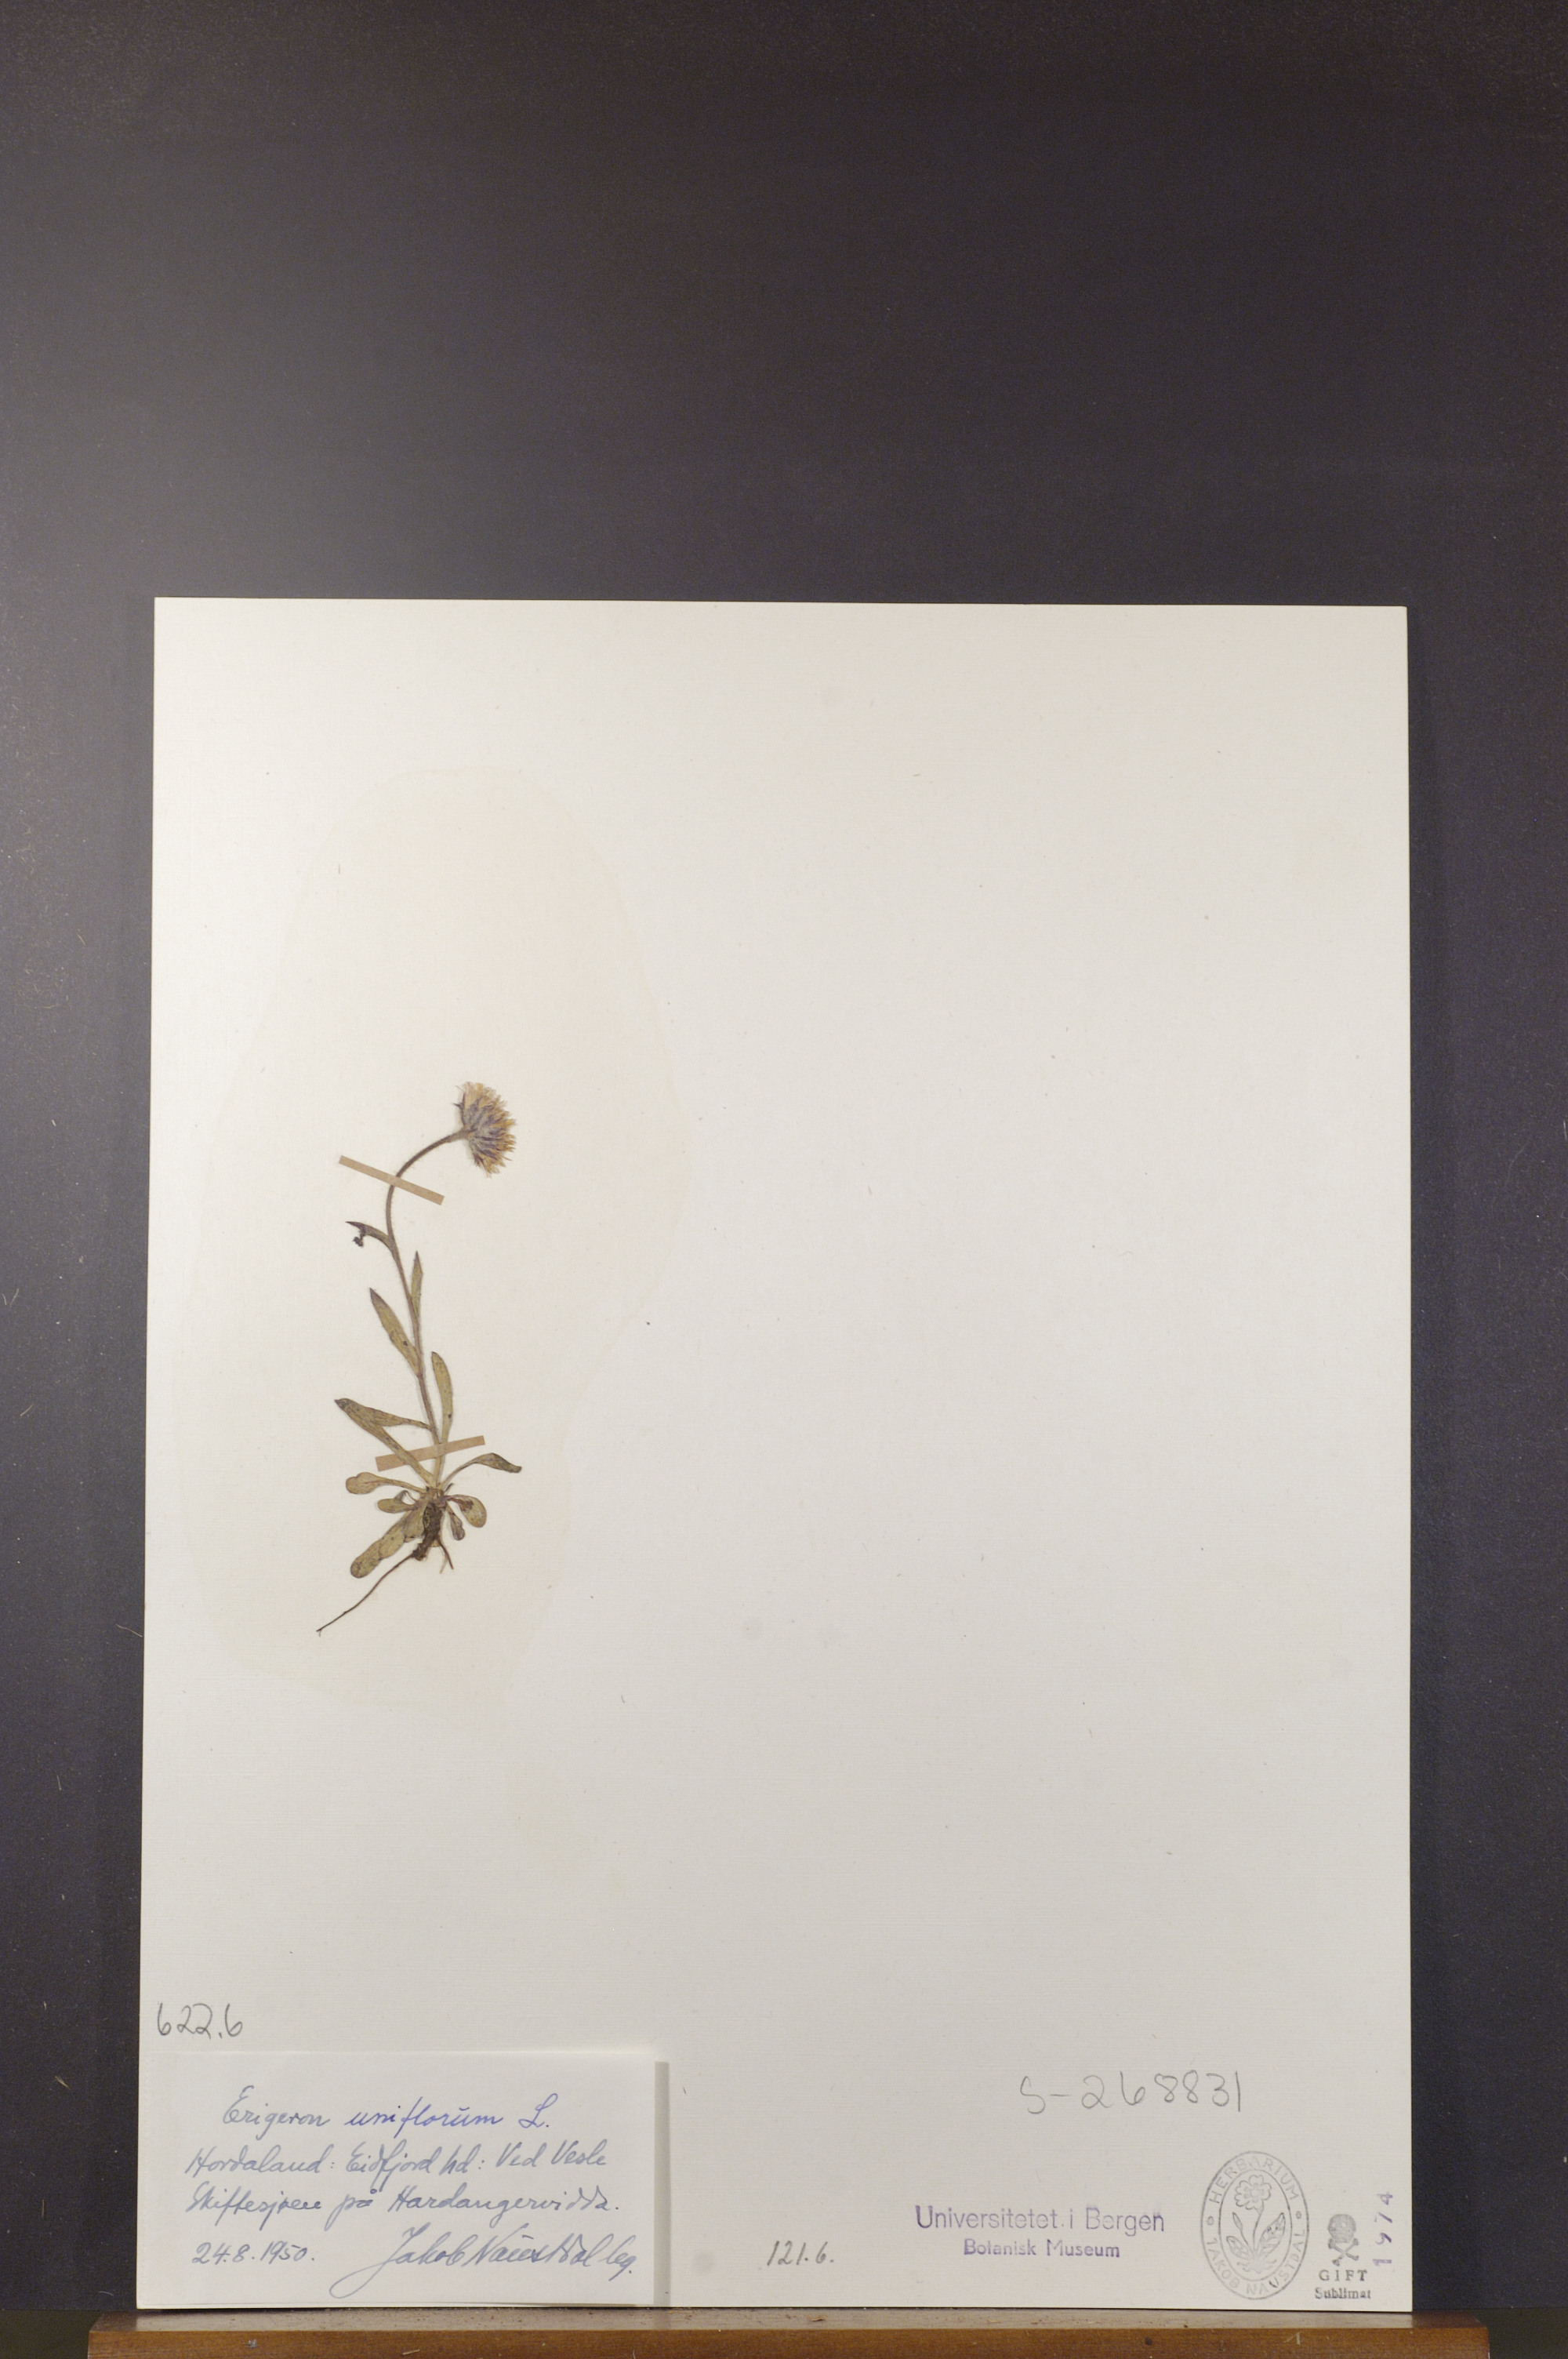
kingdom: Plantae
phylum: Tracheophyta
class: Magnoliopsida
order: Asterales
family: Asteraceae
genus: Erigeron
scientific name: Erigeron uniflorus
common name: Northern daisy
